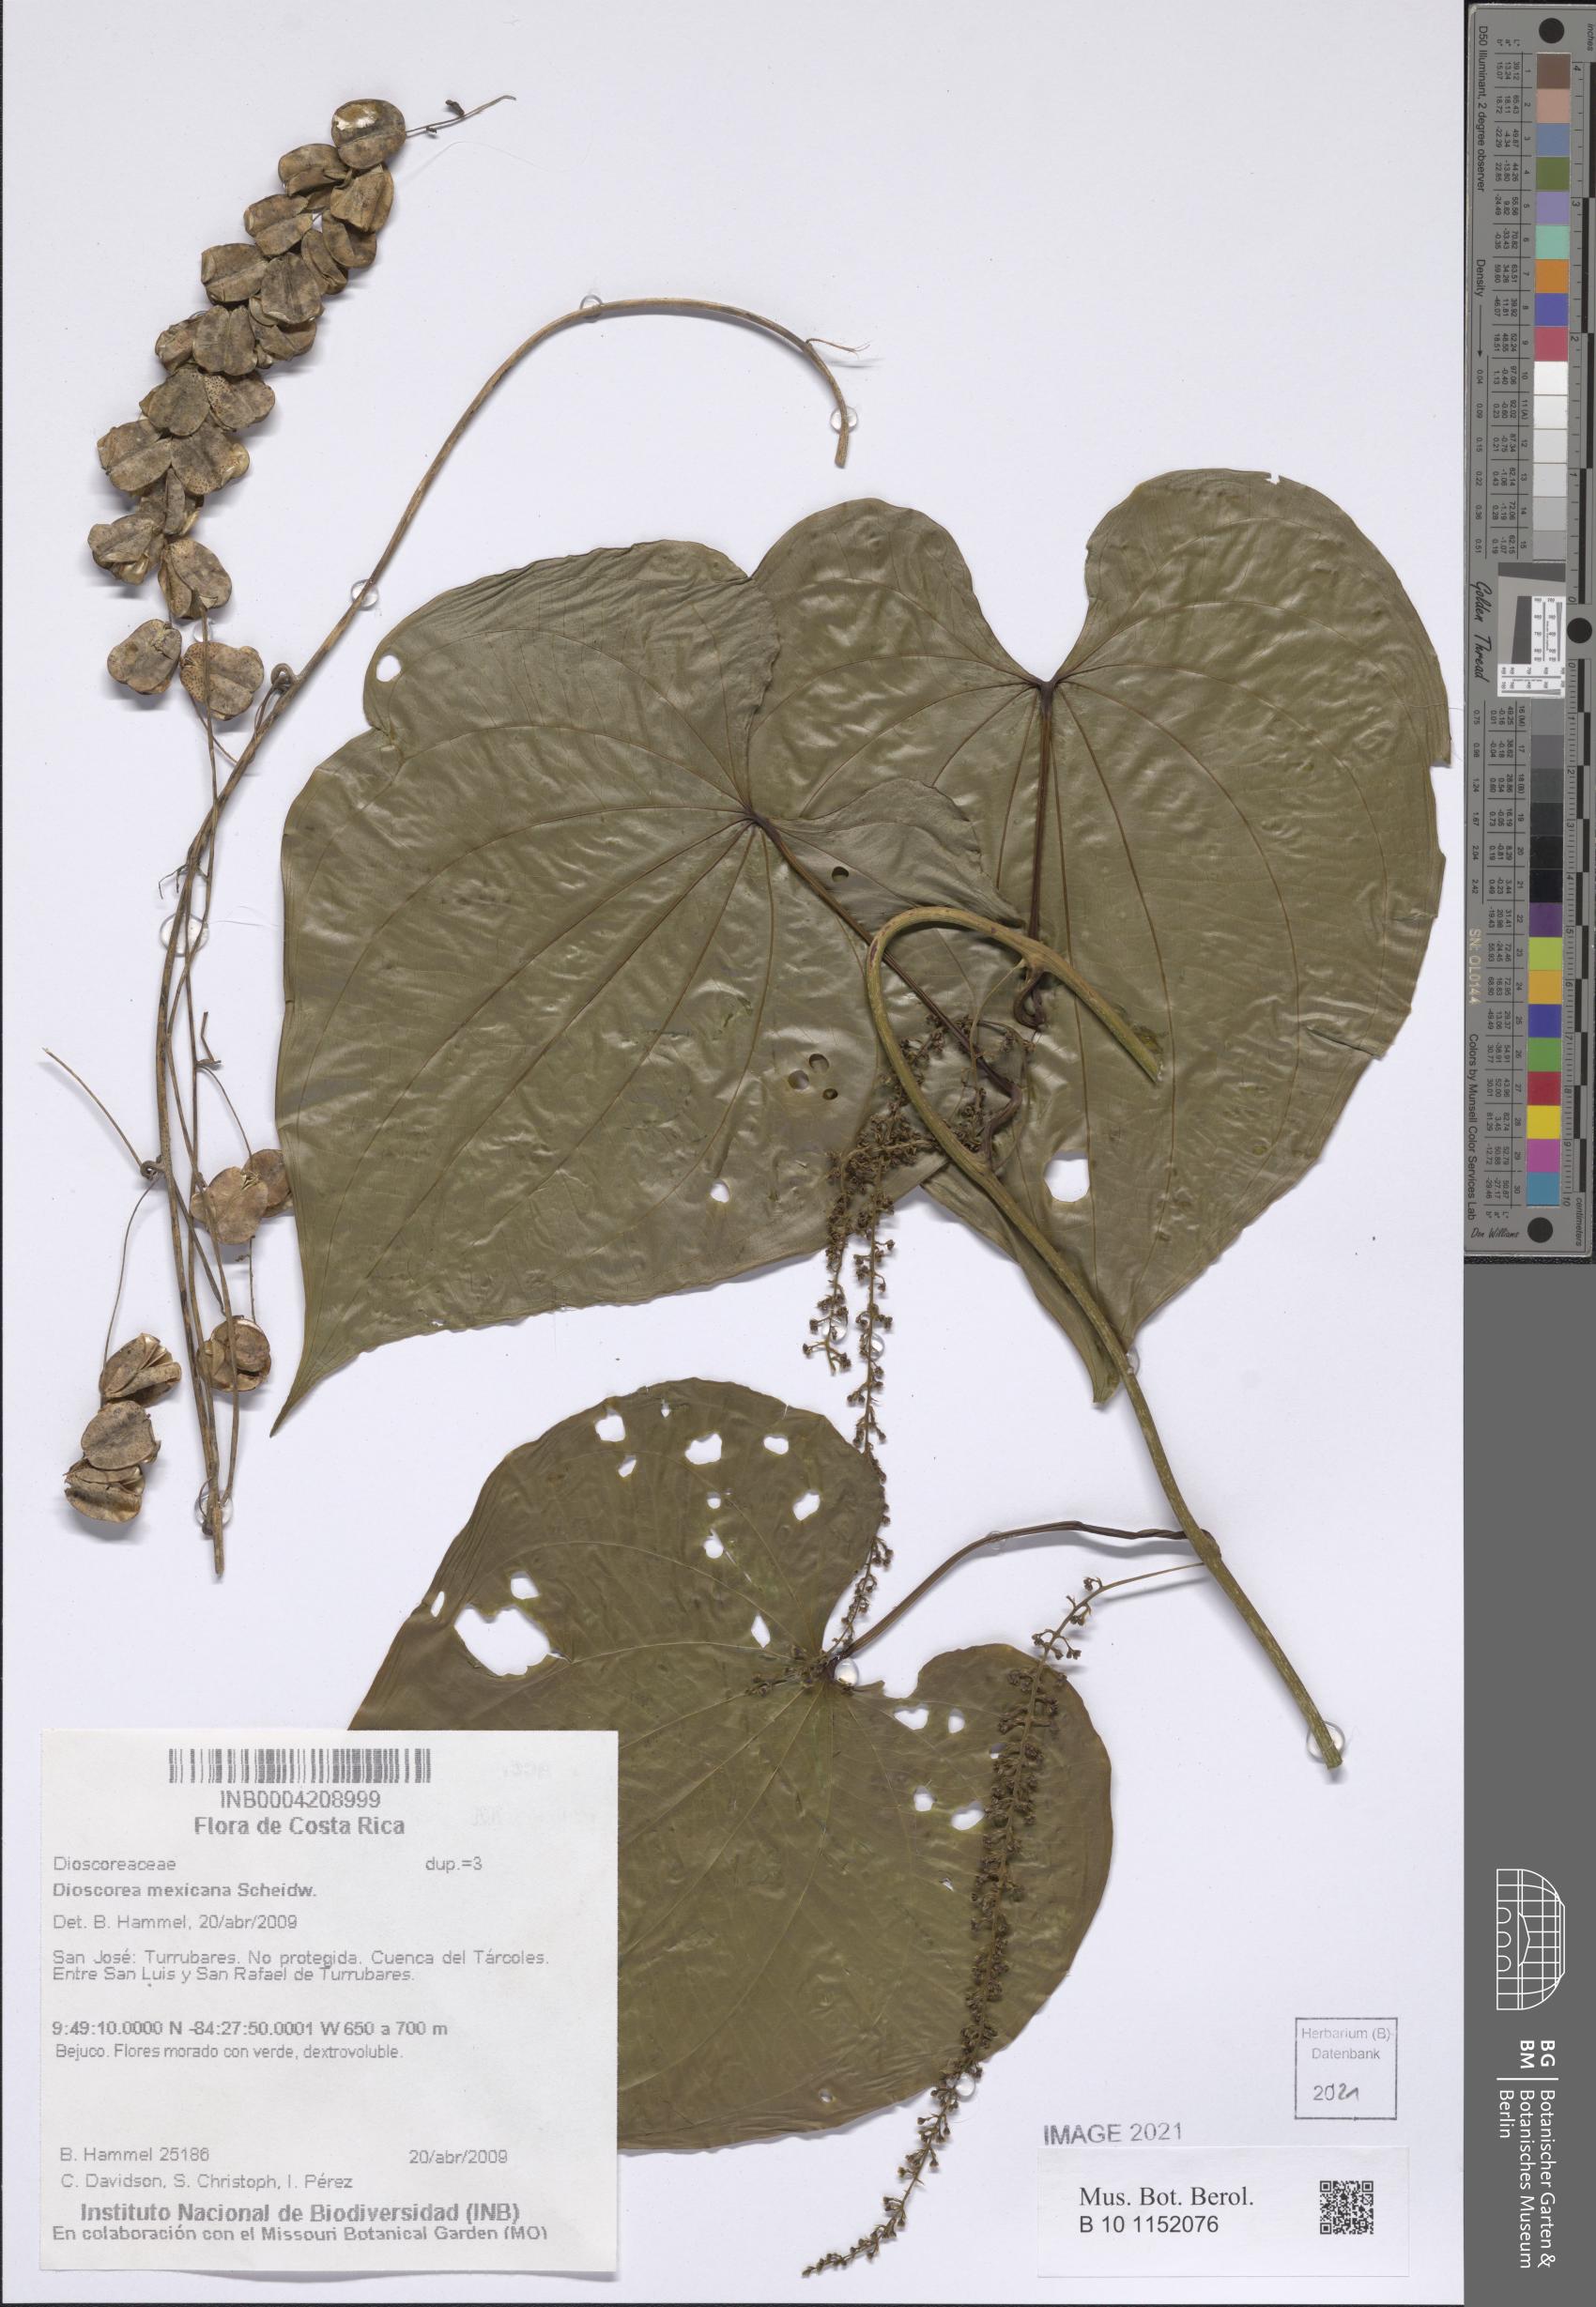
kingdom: Plantae
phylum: Tracheophyta
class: Liliopsida
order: Dioscoreales
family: Dioscoreaceae
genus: Dioscorea
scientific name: Dioscorea mexicana
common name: Mexican yam
